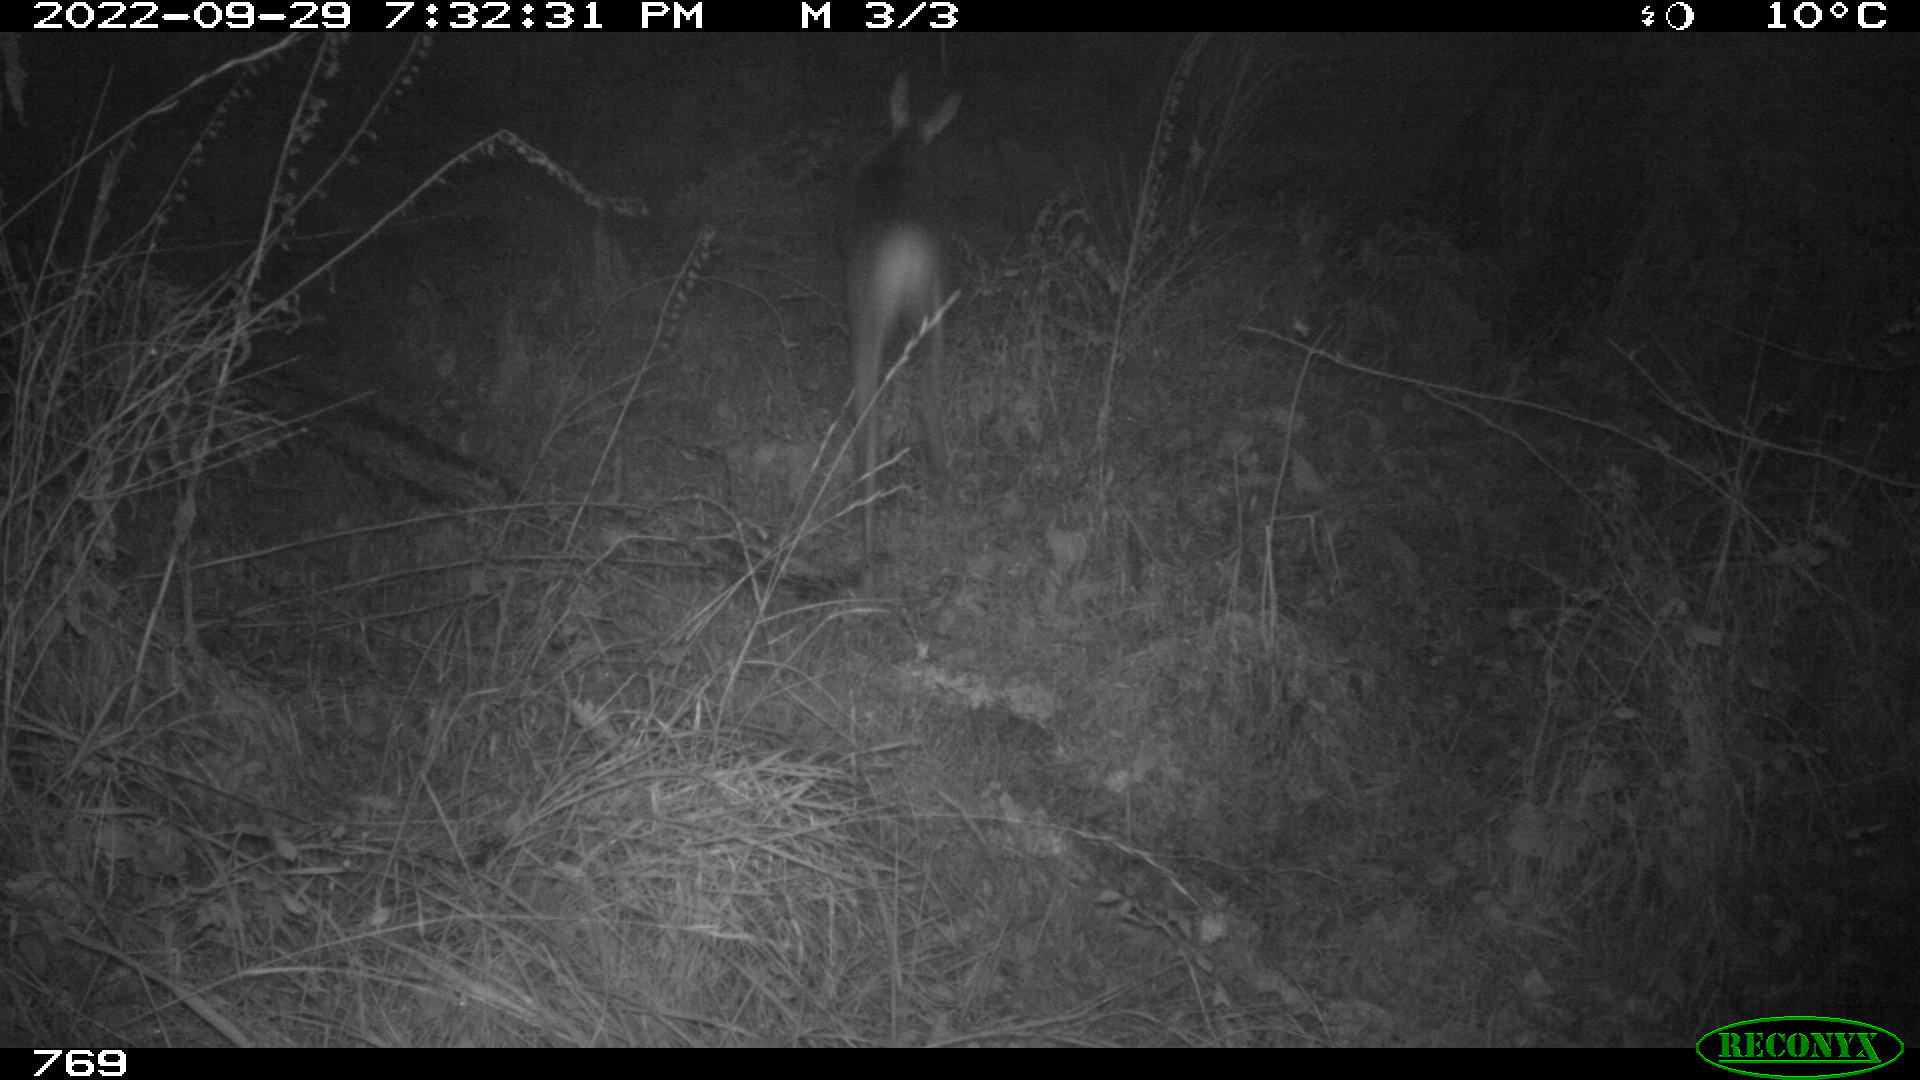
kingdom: Animalia
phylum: Chordata
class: Mammalia
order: Artiodactyla
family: Cervidae
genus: Capreolus
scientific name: Capreolus capreolus
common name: Western roe deer
